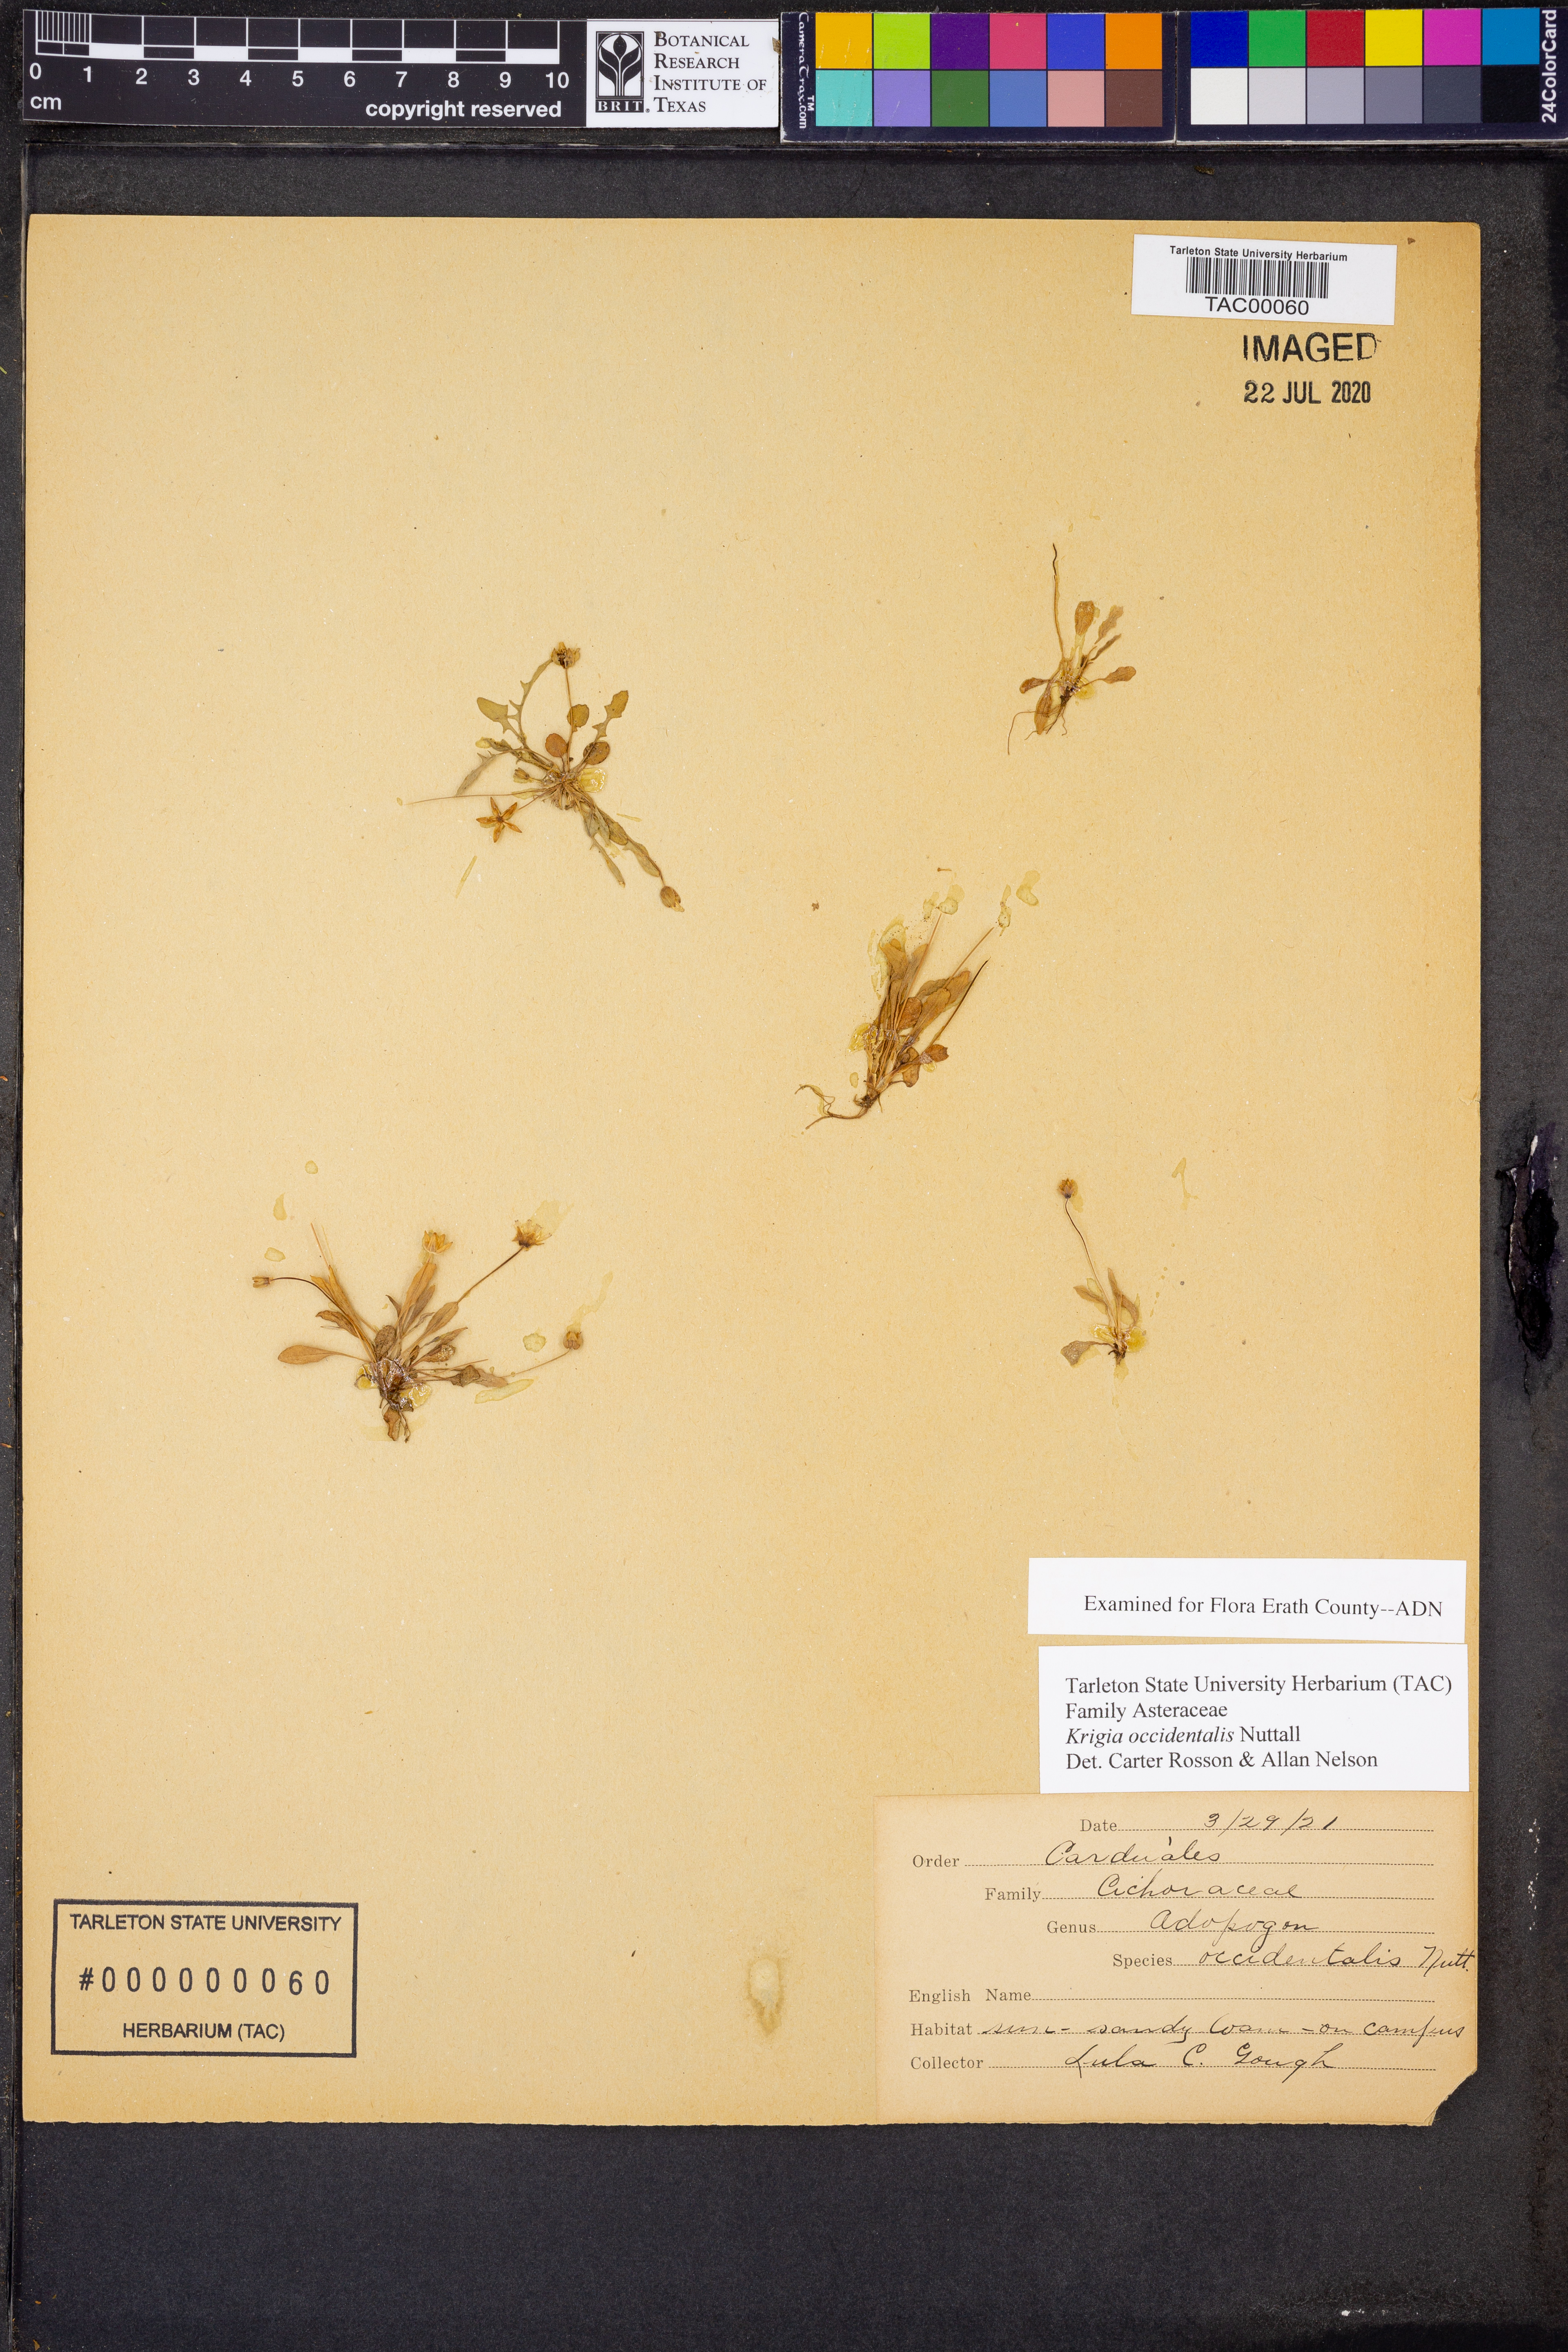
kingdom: Plantae
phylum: Tracheophyta
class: Magnoliopsida
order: Asterales
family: Asteraceae
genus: Krigia
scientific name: Krigia occidentalis
